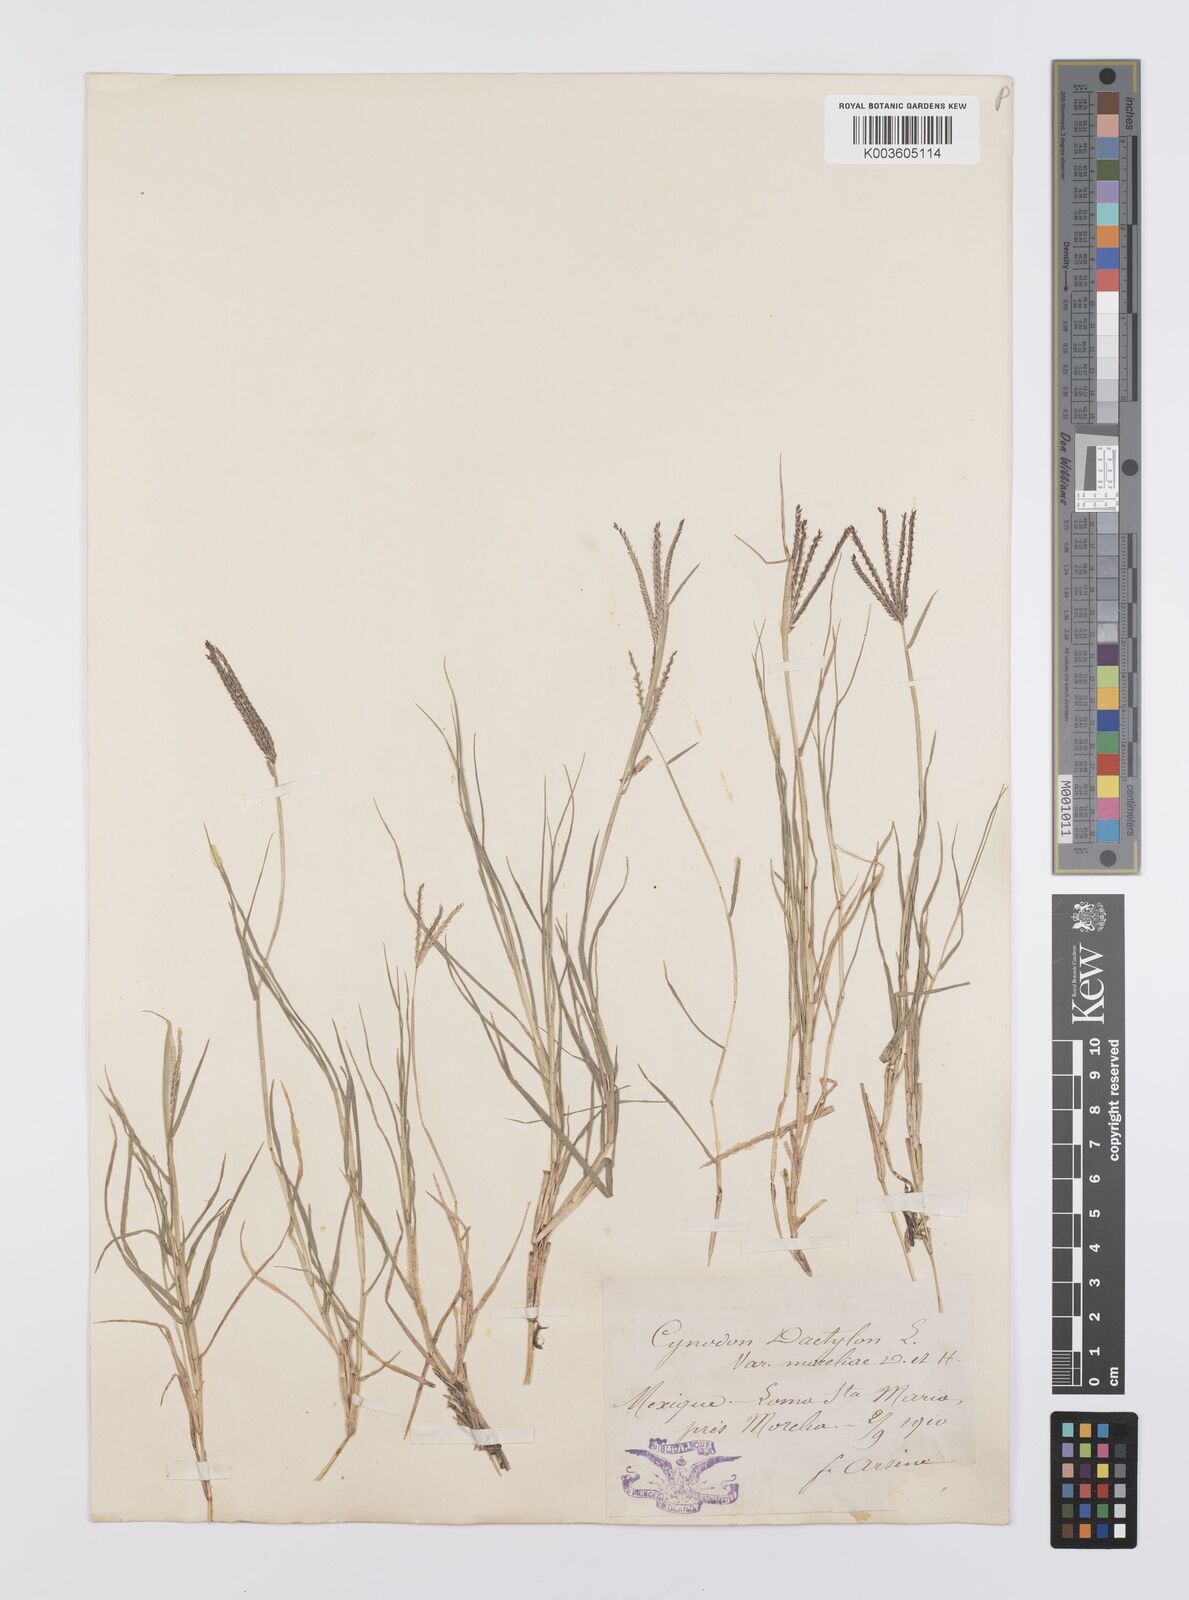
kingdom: Plantae
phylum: Tracheophyta
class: Liliopsida
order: Poales
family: Poaceae
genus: Cynodon
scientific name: Cynodon dactylon
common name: Bermuda grass
